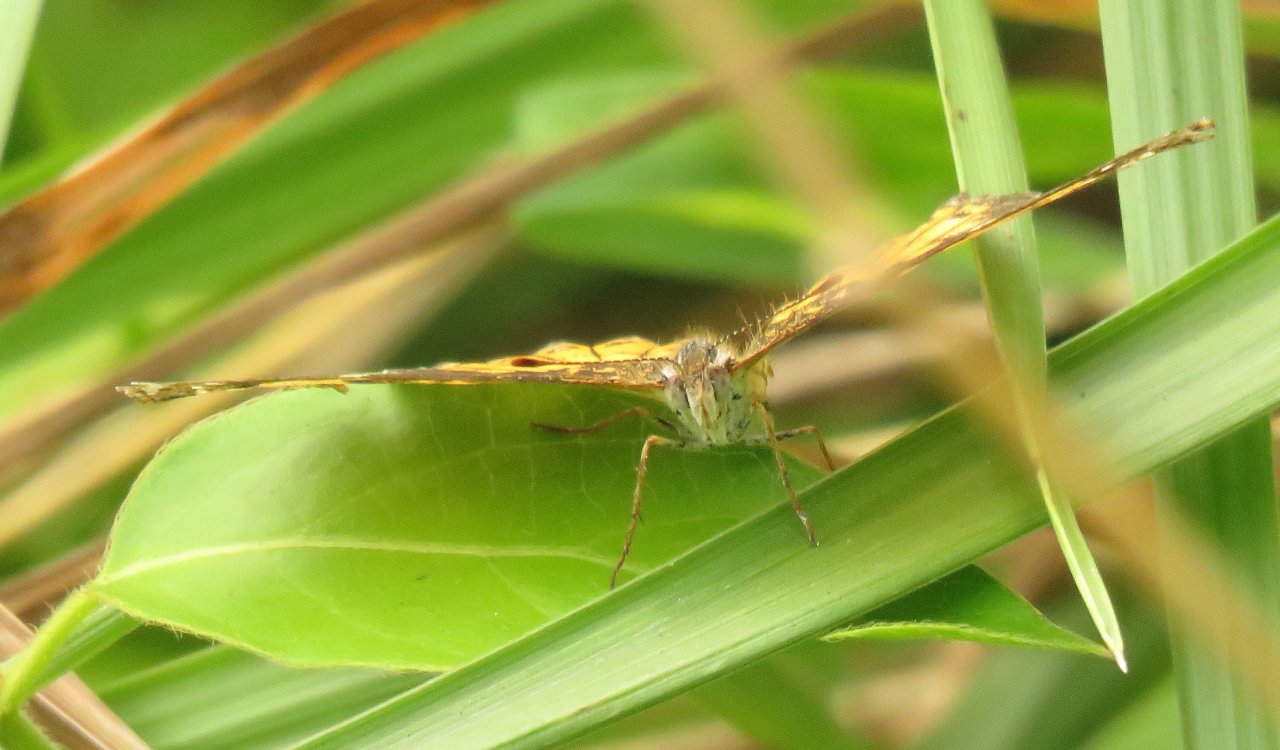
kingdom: Animalia
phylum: Arthropoda
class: Insecta
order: Lepidoptera
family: Nymphalidae
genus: Chlosyne
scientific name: Chlosyne nycteis
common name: Silvery Checkerspot
